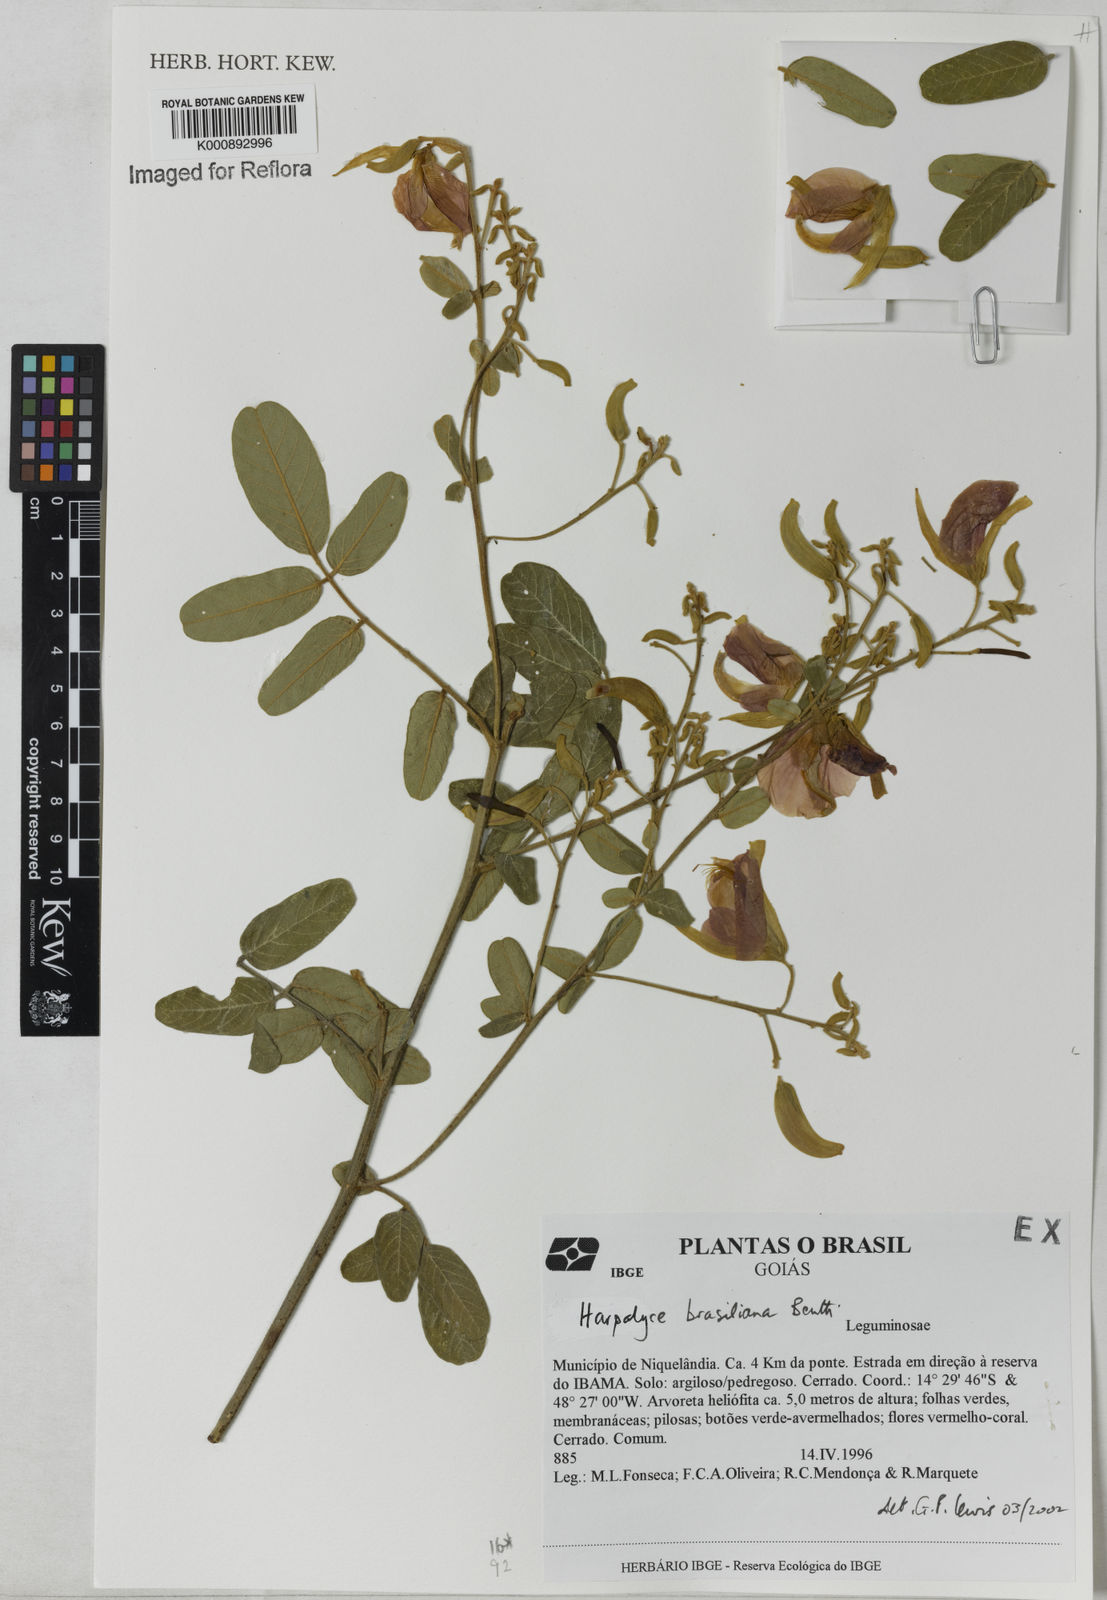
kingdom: Plantae
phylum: Tracheophyta
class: Magnoliopsida
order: Fabales
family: Fabaceae
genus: Harpalyce
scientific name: Harpalyce brasiliana
